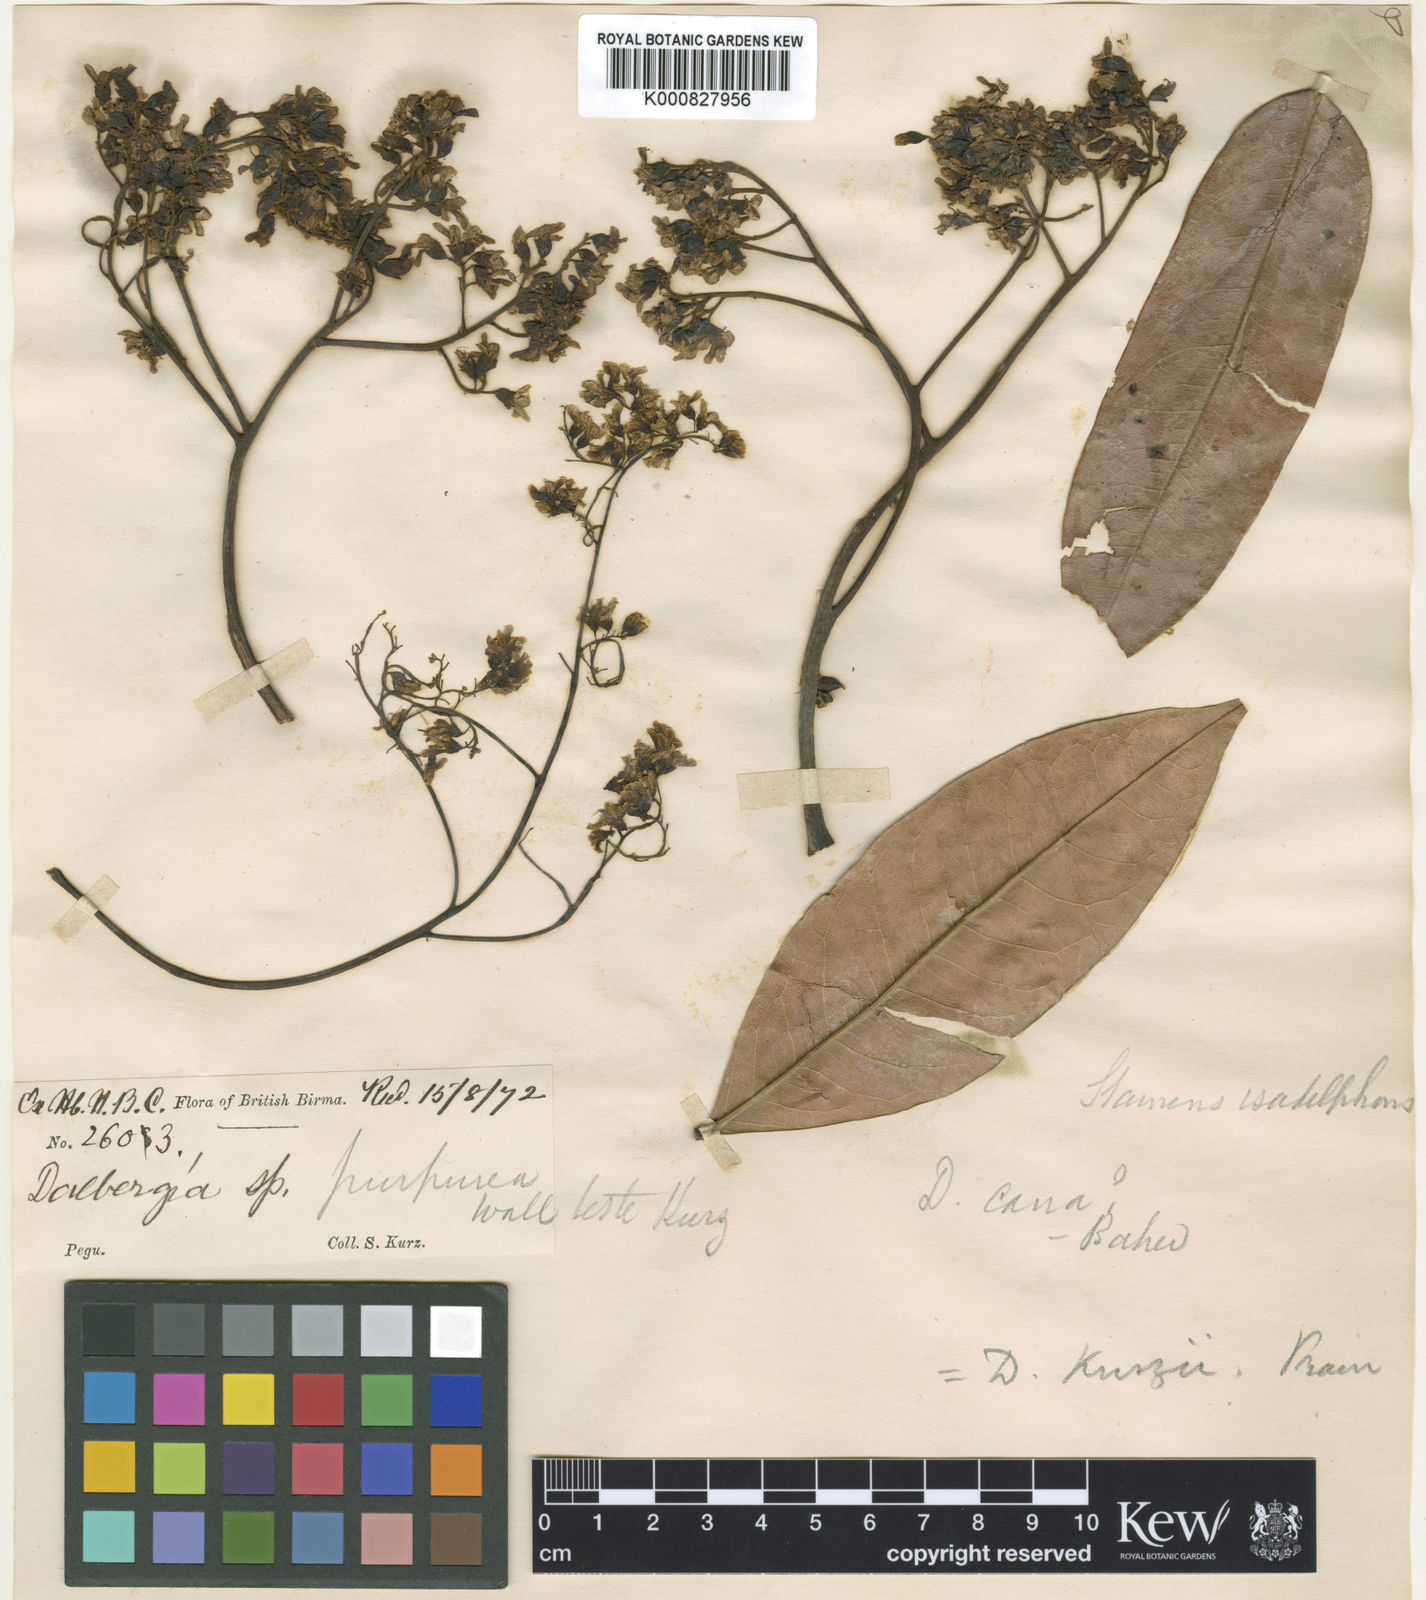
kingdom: Plantae
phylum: Tracheophyta
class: Magnoliopsida
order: Fabales
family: Fabaceae
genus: Dalbergia
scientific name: Dalbergia cana
